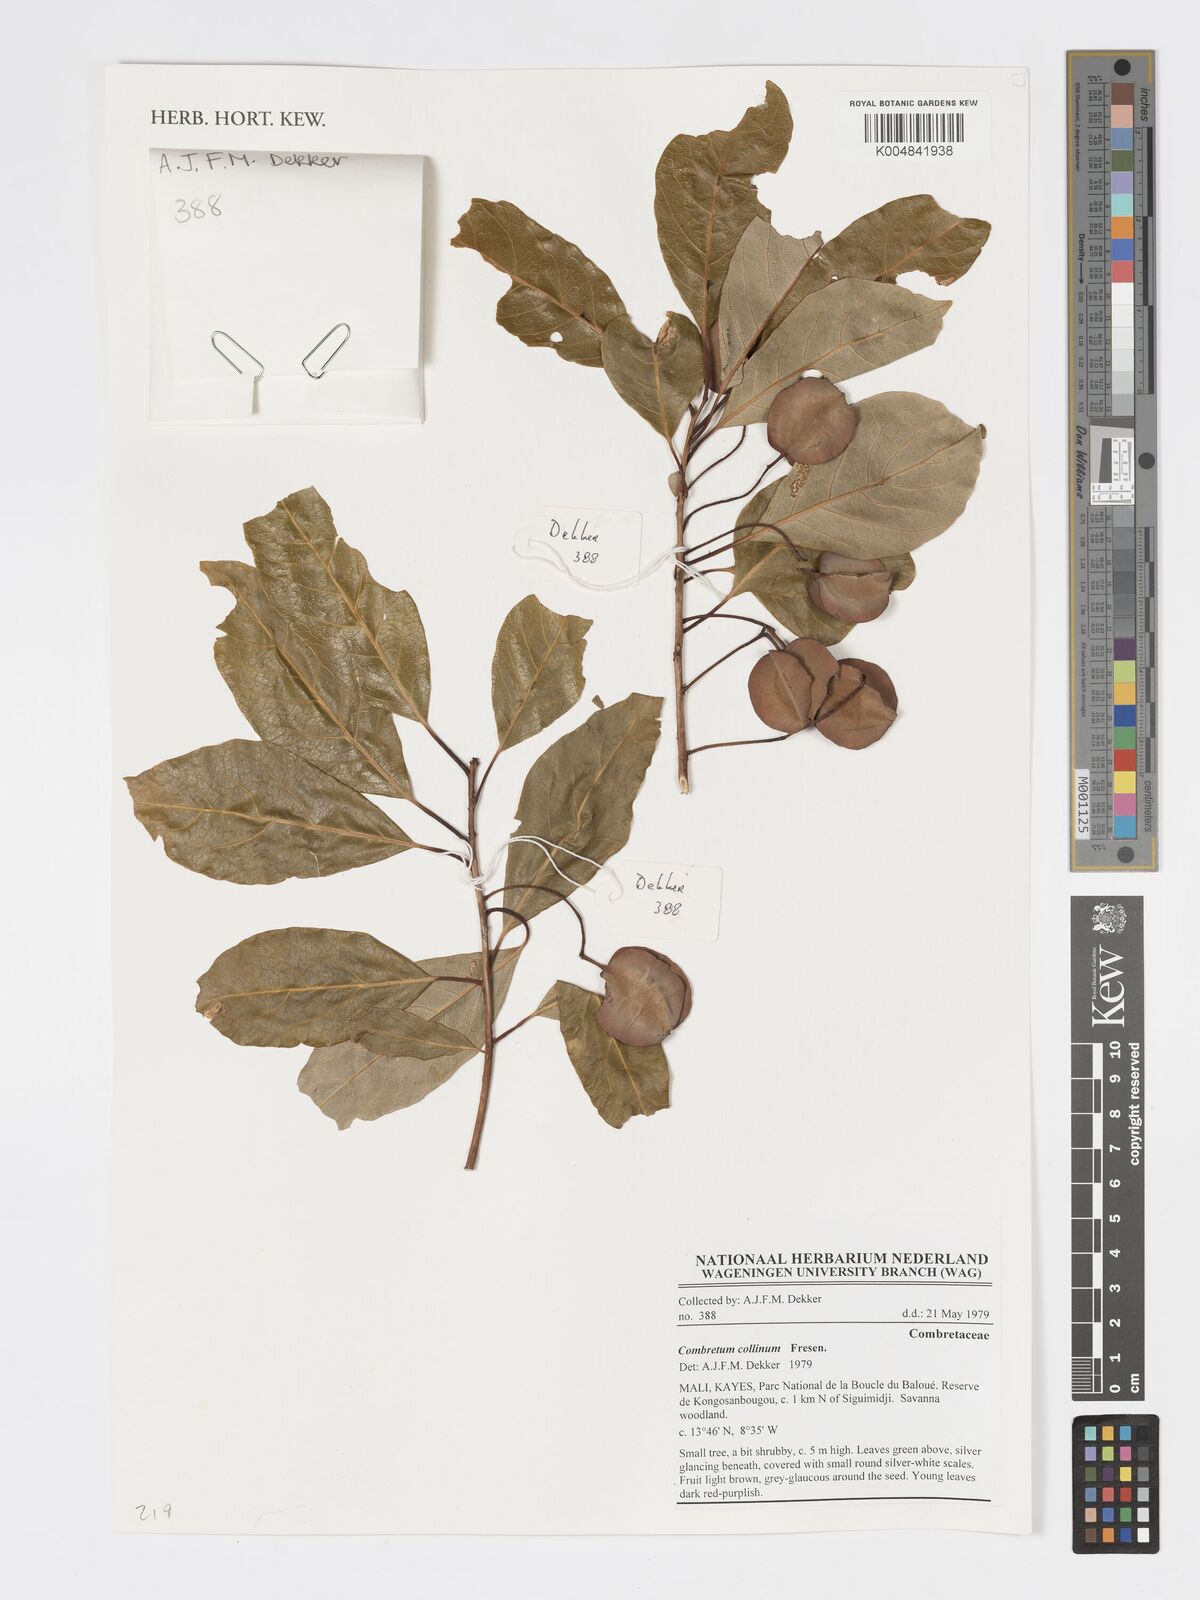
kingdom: Plantae
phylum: Tracheophyta
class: Magnoliopsida
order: Myrtales
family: Combretaceae
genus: Combretum
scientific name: Combretum collinum
